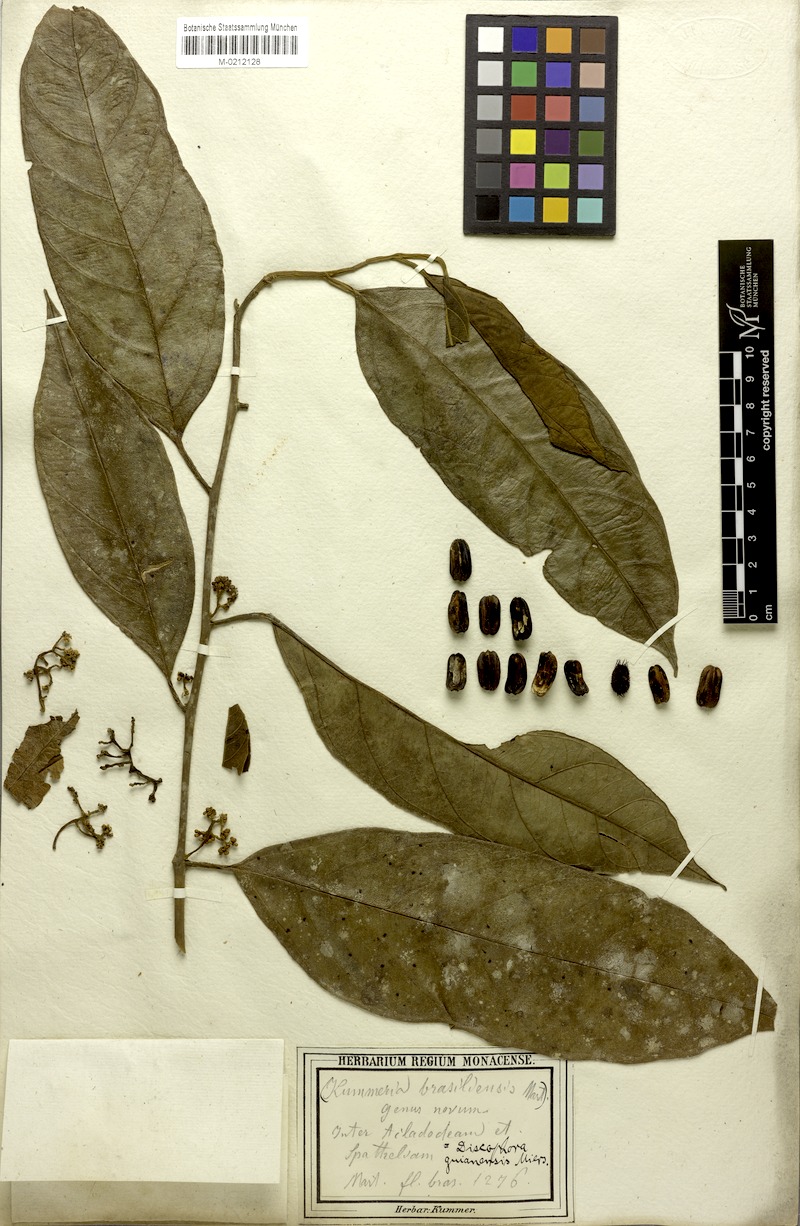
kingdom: Plantae
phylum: Tracheophyta
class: Magnoliopsida
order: Cardiopteridales
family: Stemonuraceae
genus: Discophora
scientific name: Discophora guianensis
